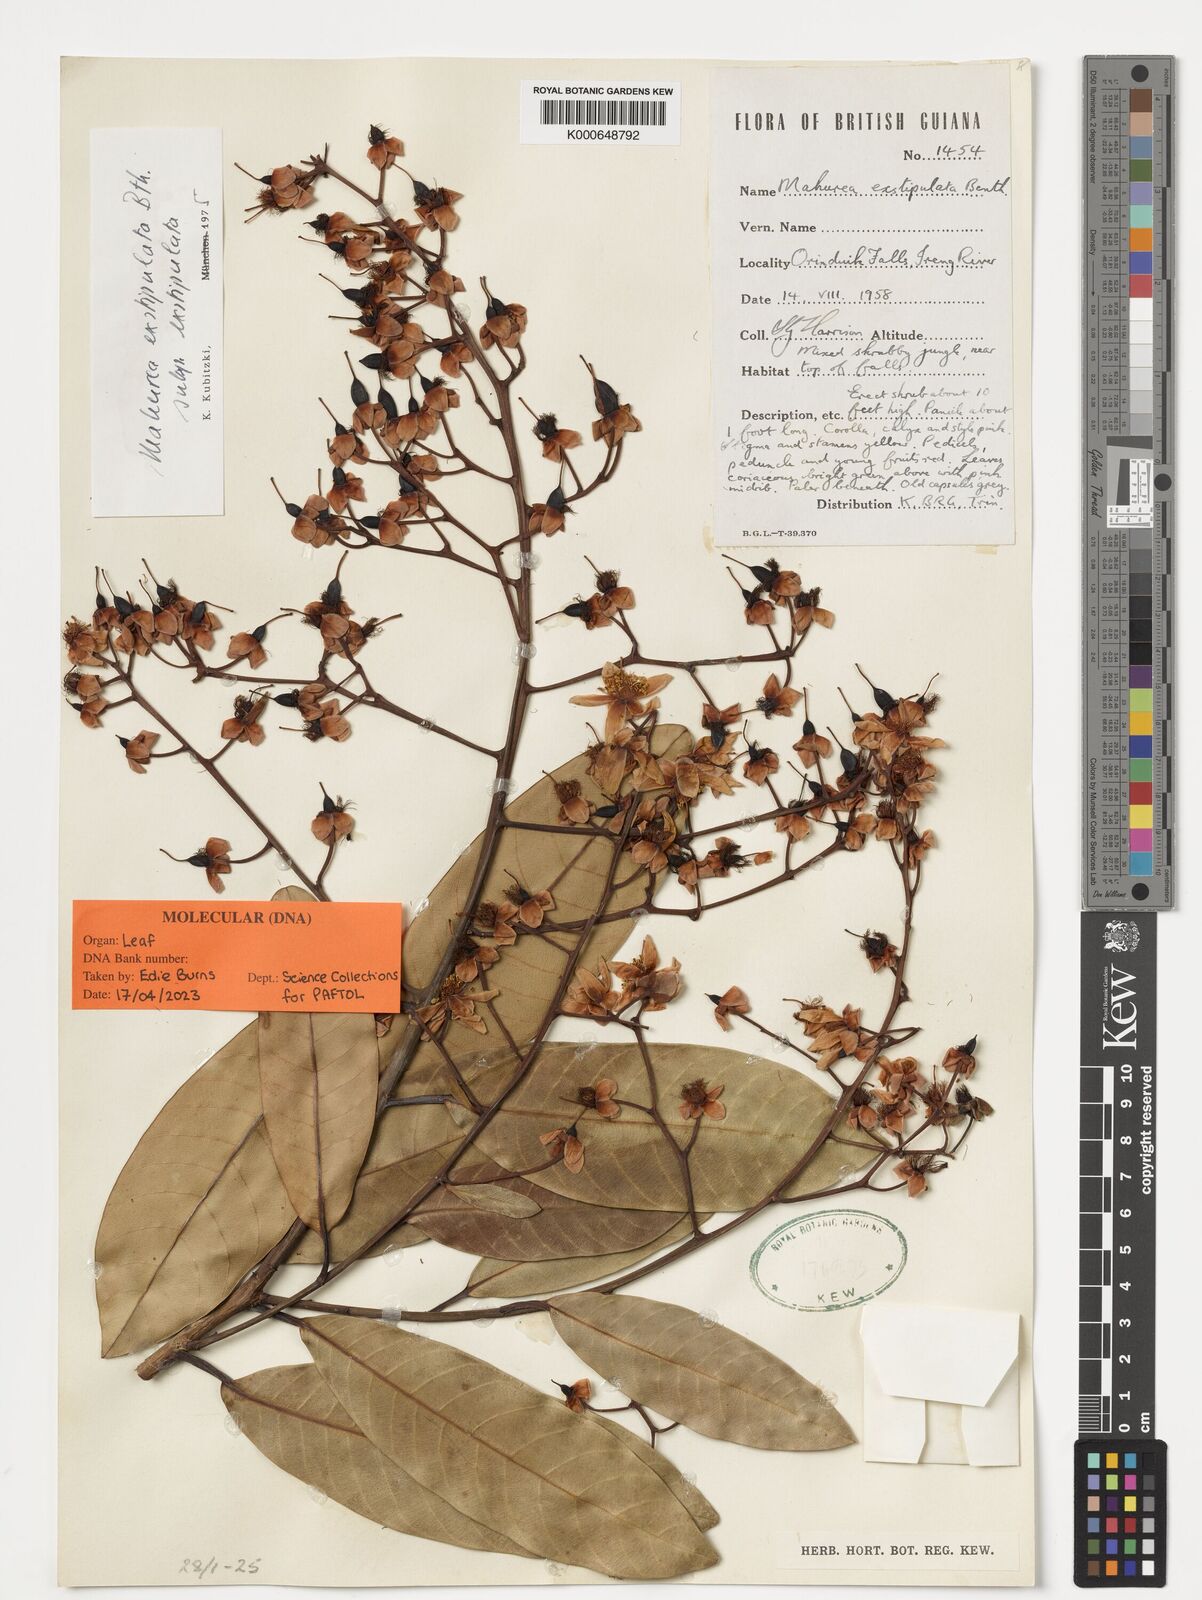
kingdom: Plantae
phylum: Tracheophyta
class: Magnoliopsida
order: Malpighiales
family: Calophyllaceae
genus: Mahurea
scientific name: Mahurea exstipulata
